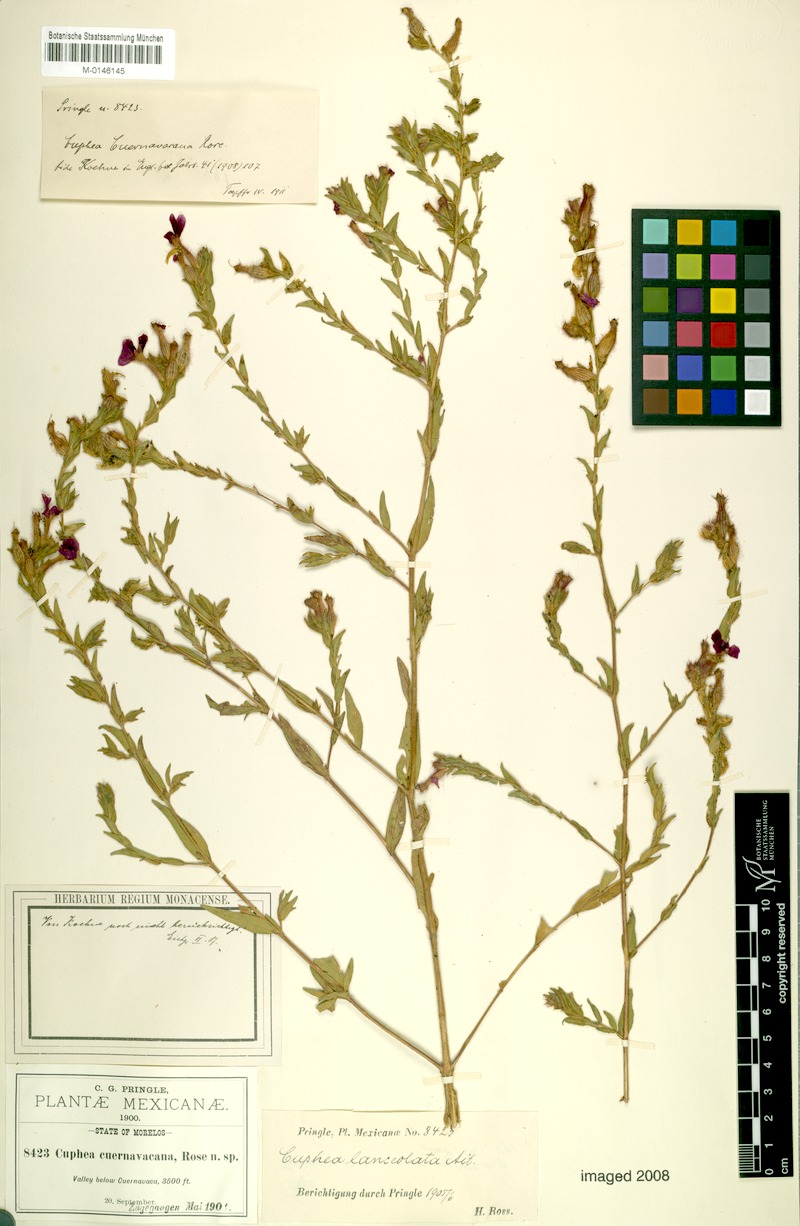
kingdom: Plantae
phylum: Tracheophyta
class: Magnoliopsida
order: Myrtales
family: Lythraceae
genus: Cuphea
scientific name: Cuphea cuernavacana
